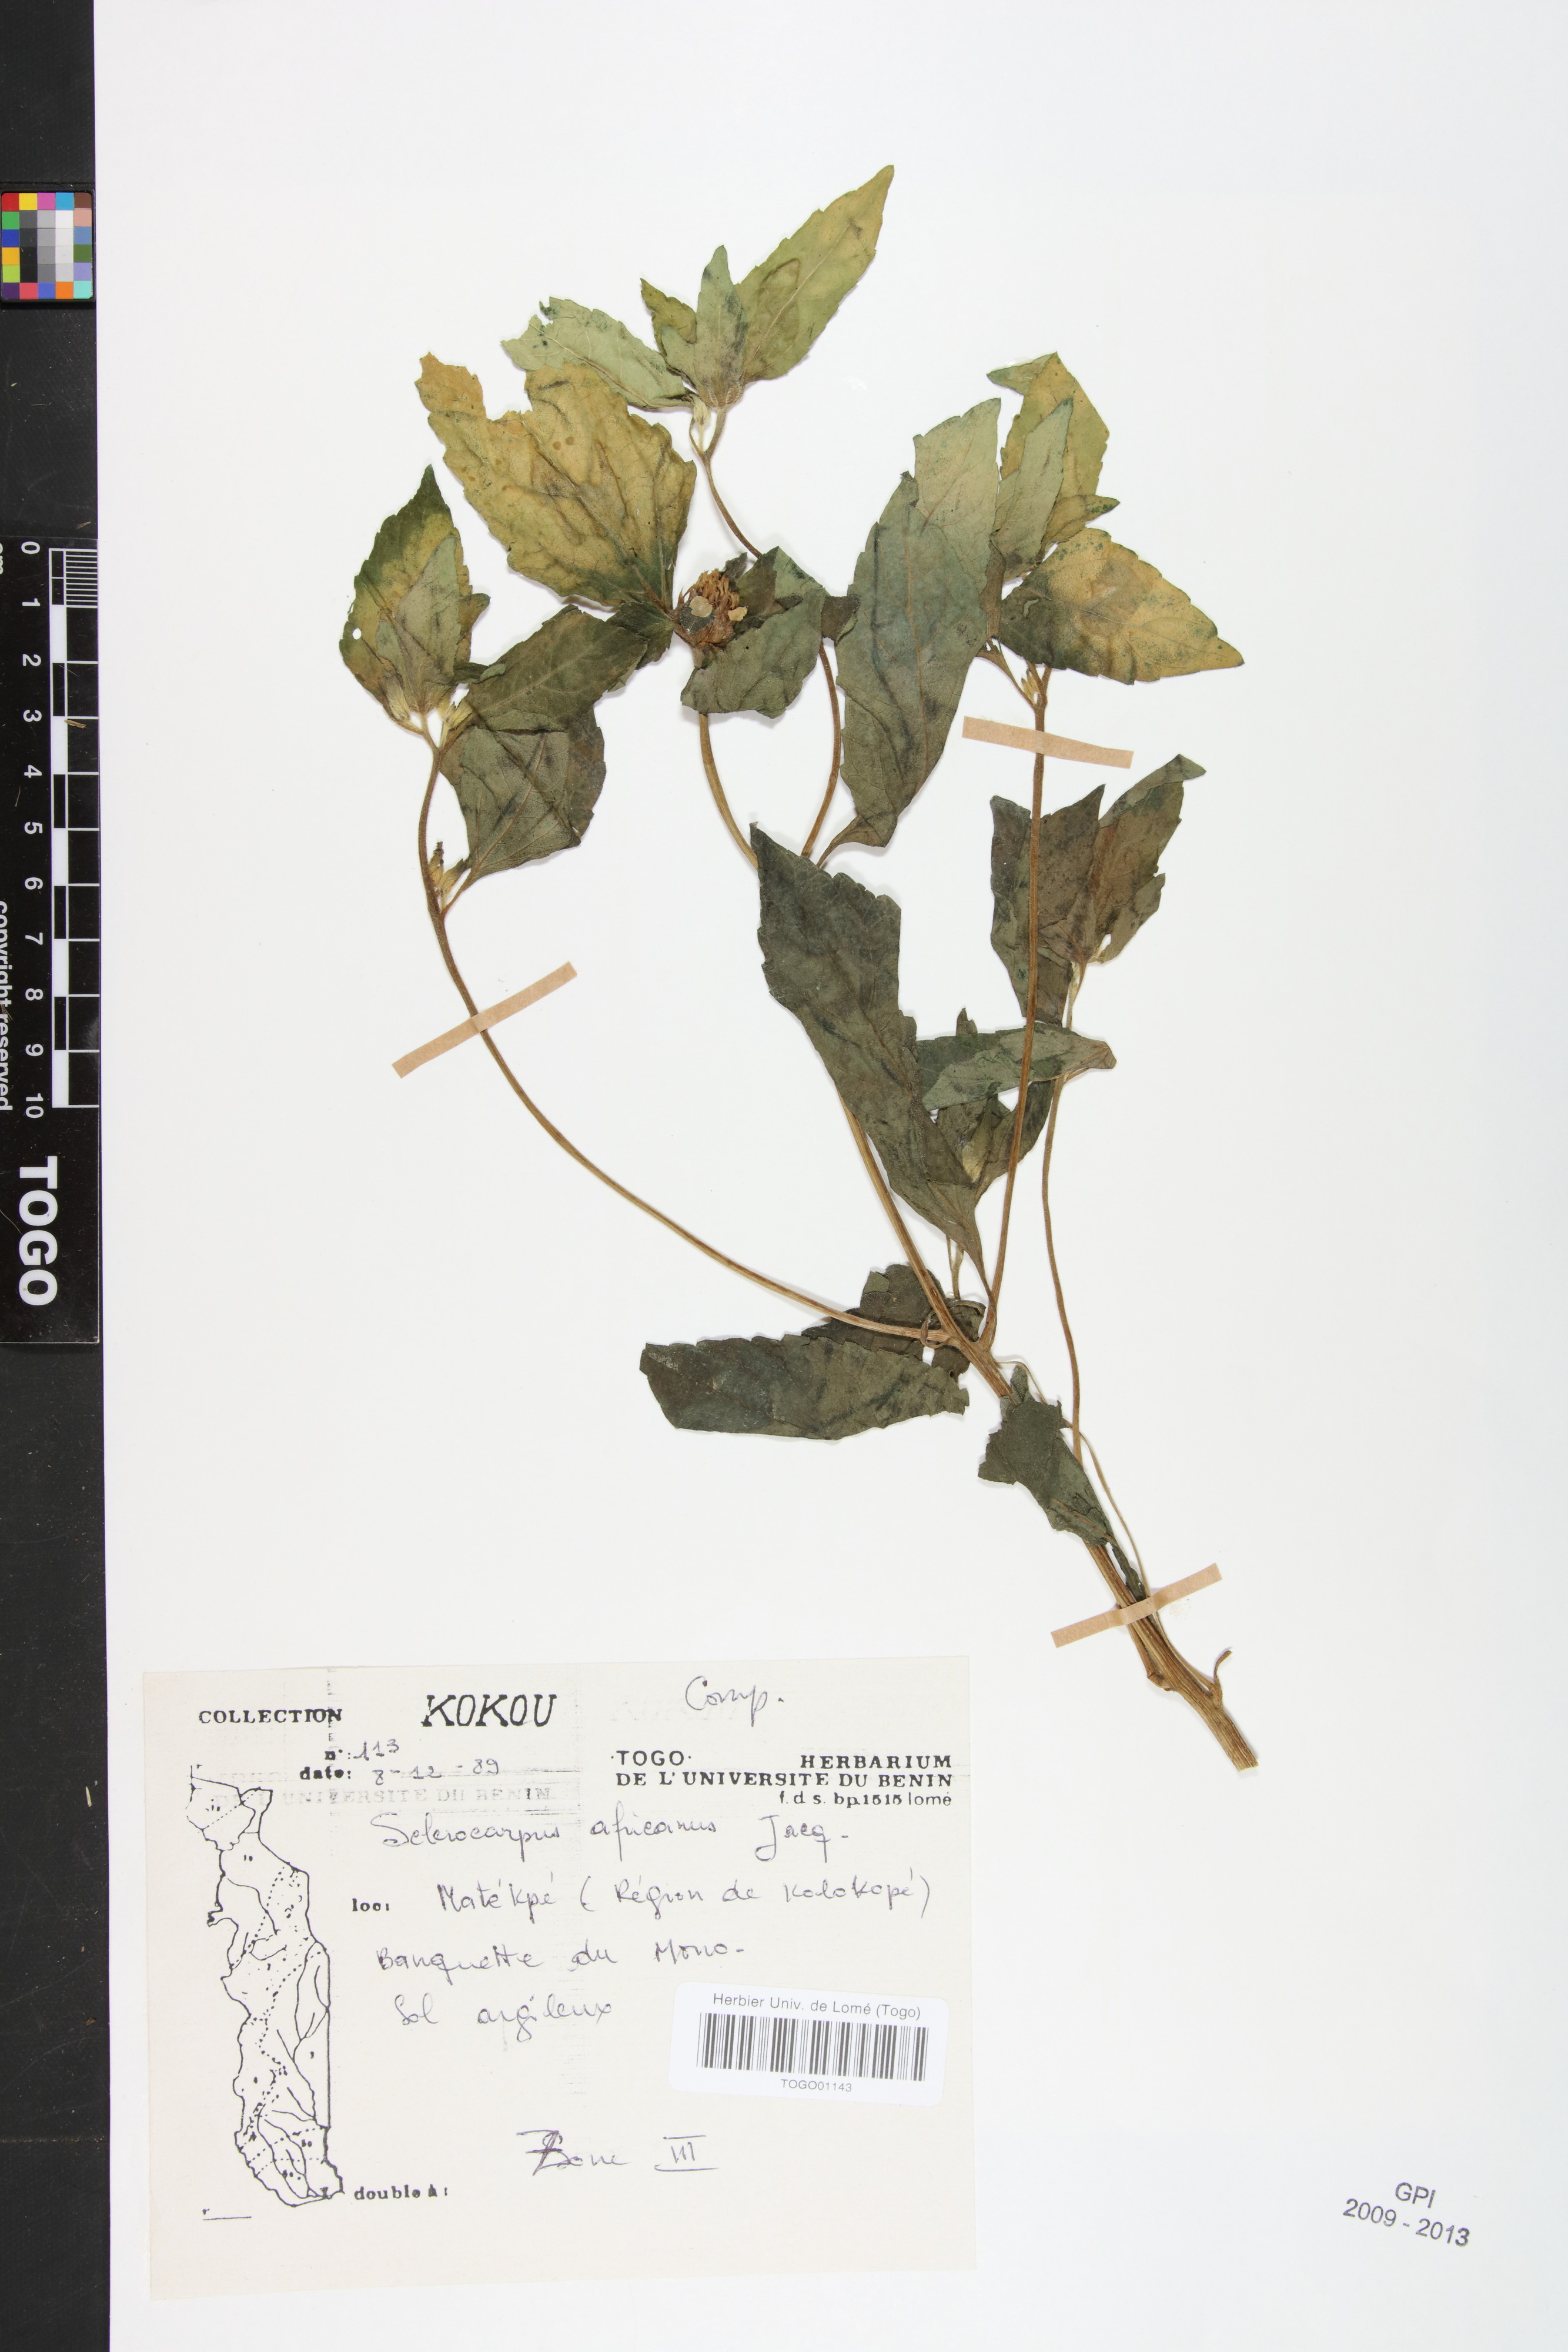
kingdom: Plantae
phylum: Tracheophyta
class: Magnoliopsida
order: Asterales
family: Asteraceae
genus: Sclerocarpus
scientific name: Sclerocarpus africanus
